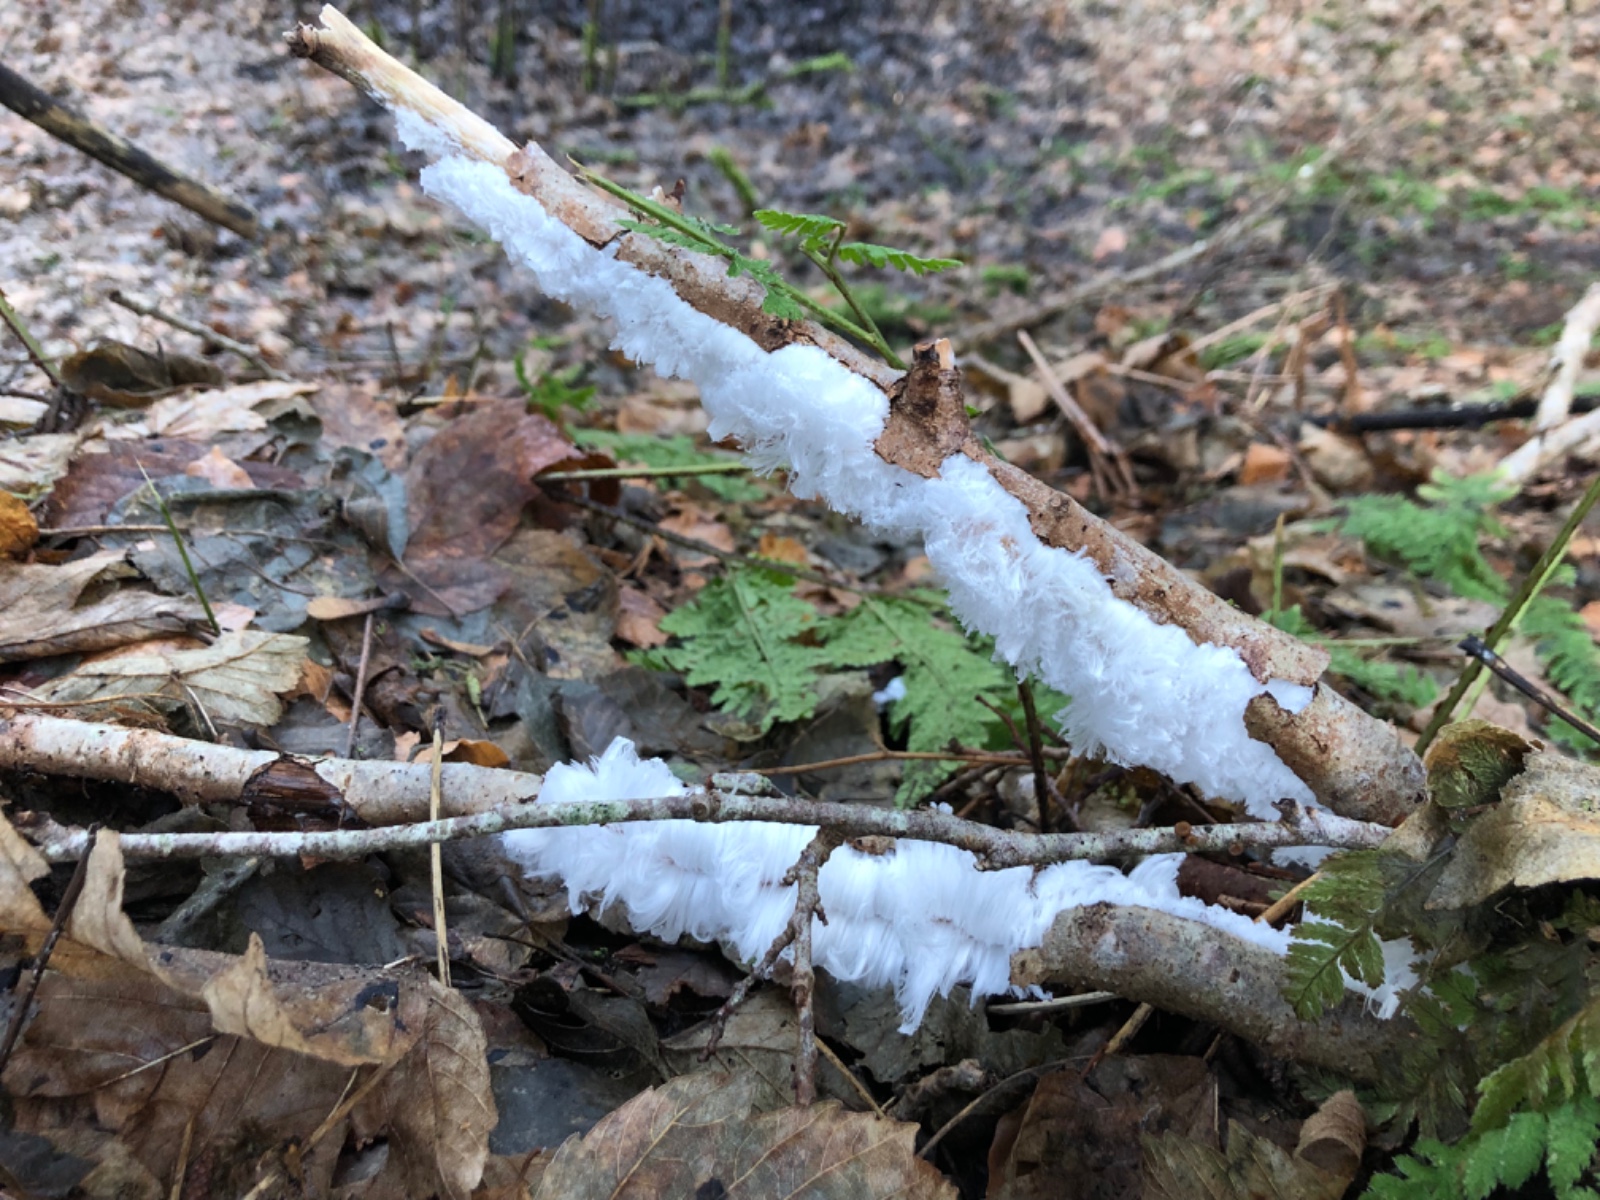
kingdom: Fungi
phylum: Basidiomycota
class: Tremellomycetes
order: Tremellales
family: Exidiaceae
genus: Exidiopsis
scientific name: Exidiopsis effusa
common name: smuk bævrehinde
